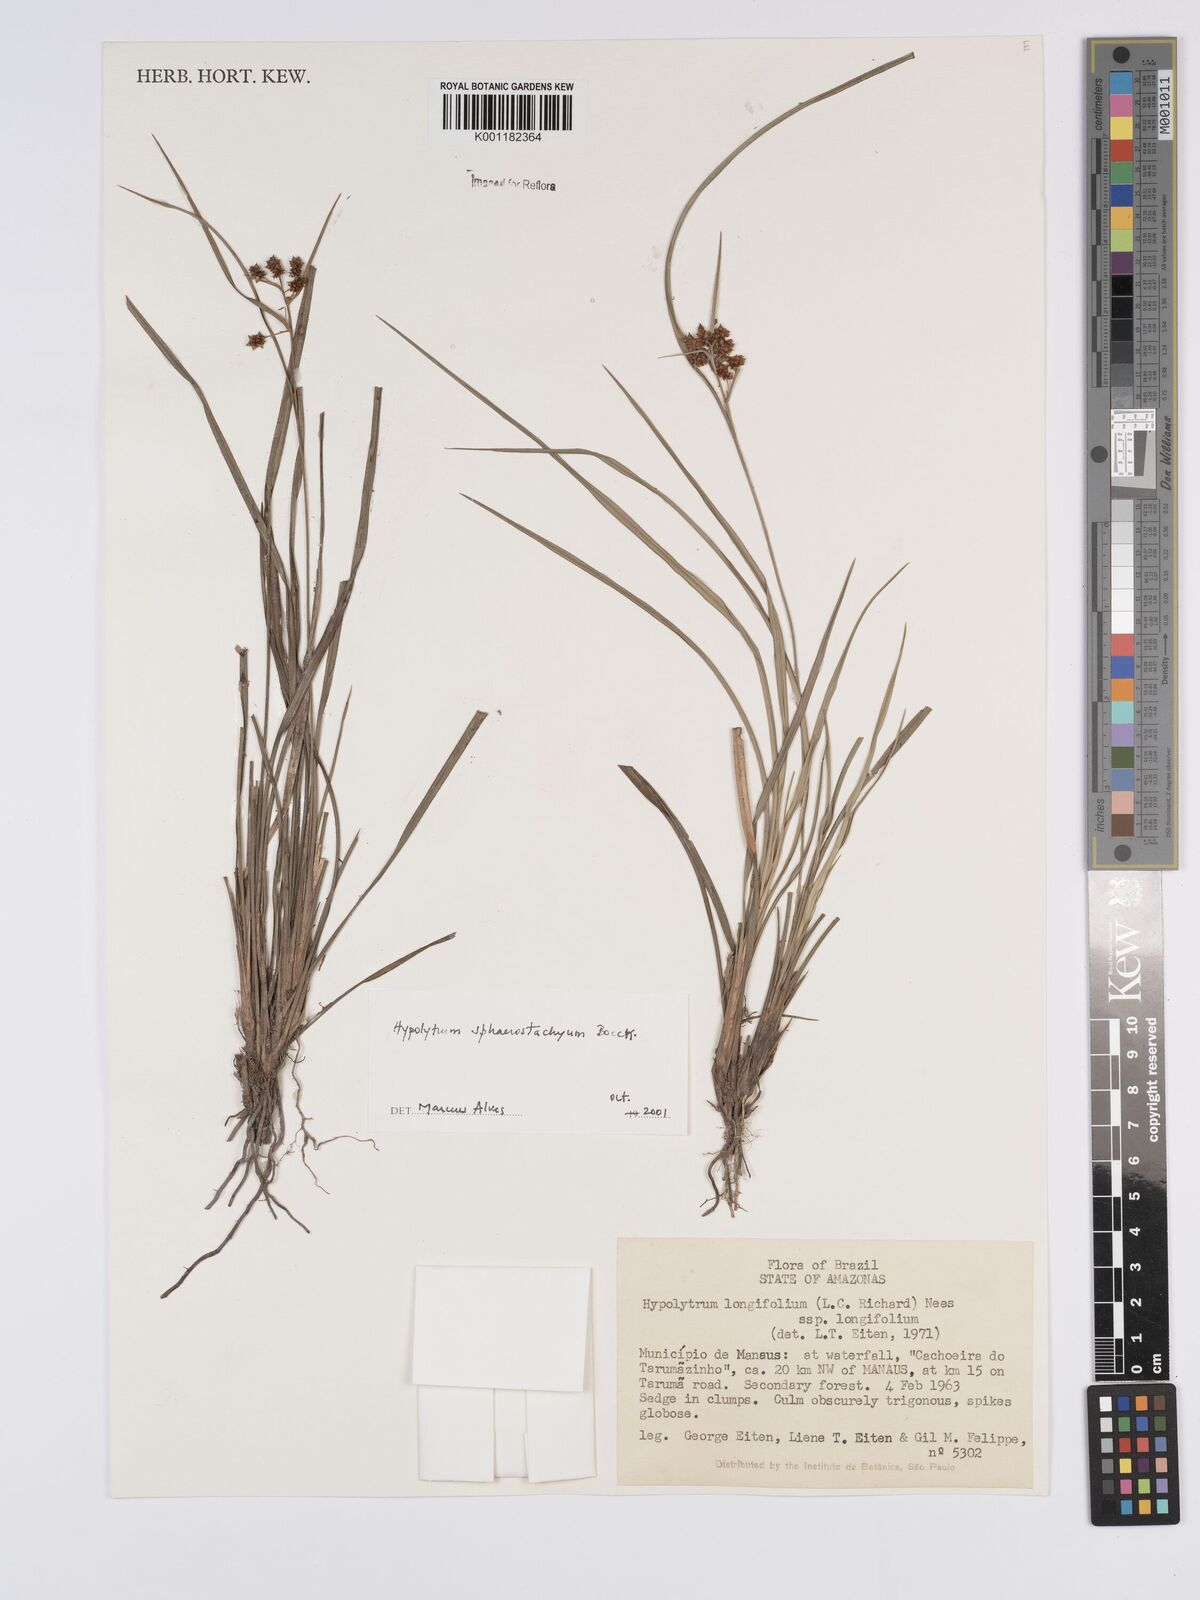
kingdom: Plantae
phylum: Tracheophyta
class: Liliopsida
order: Poales
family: Cyperaceae
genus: Hypolytrum
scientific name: Hypolytrum sphaerostachyum
